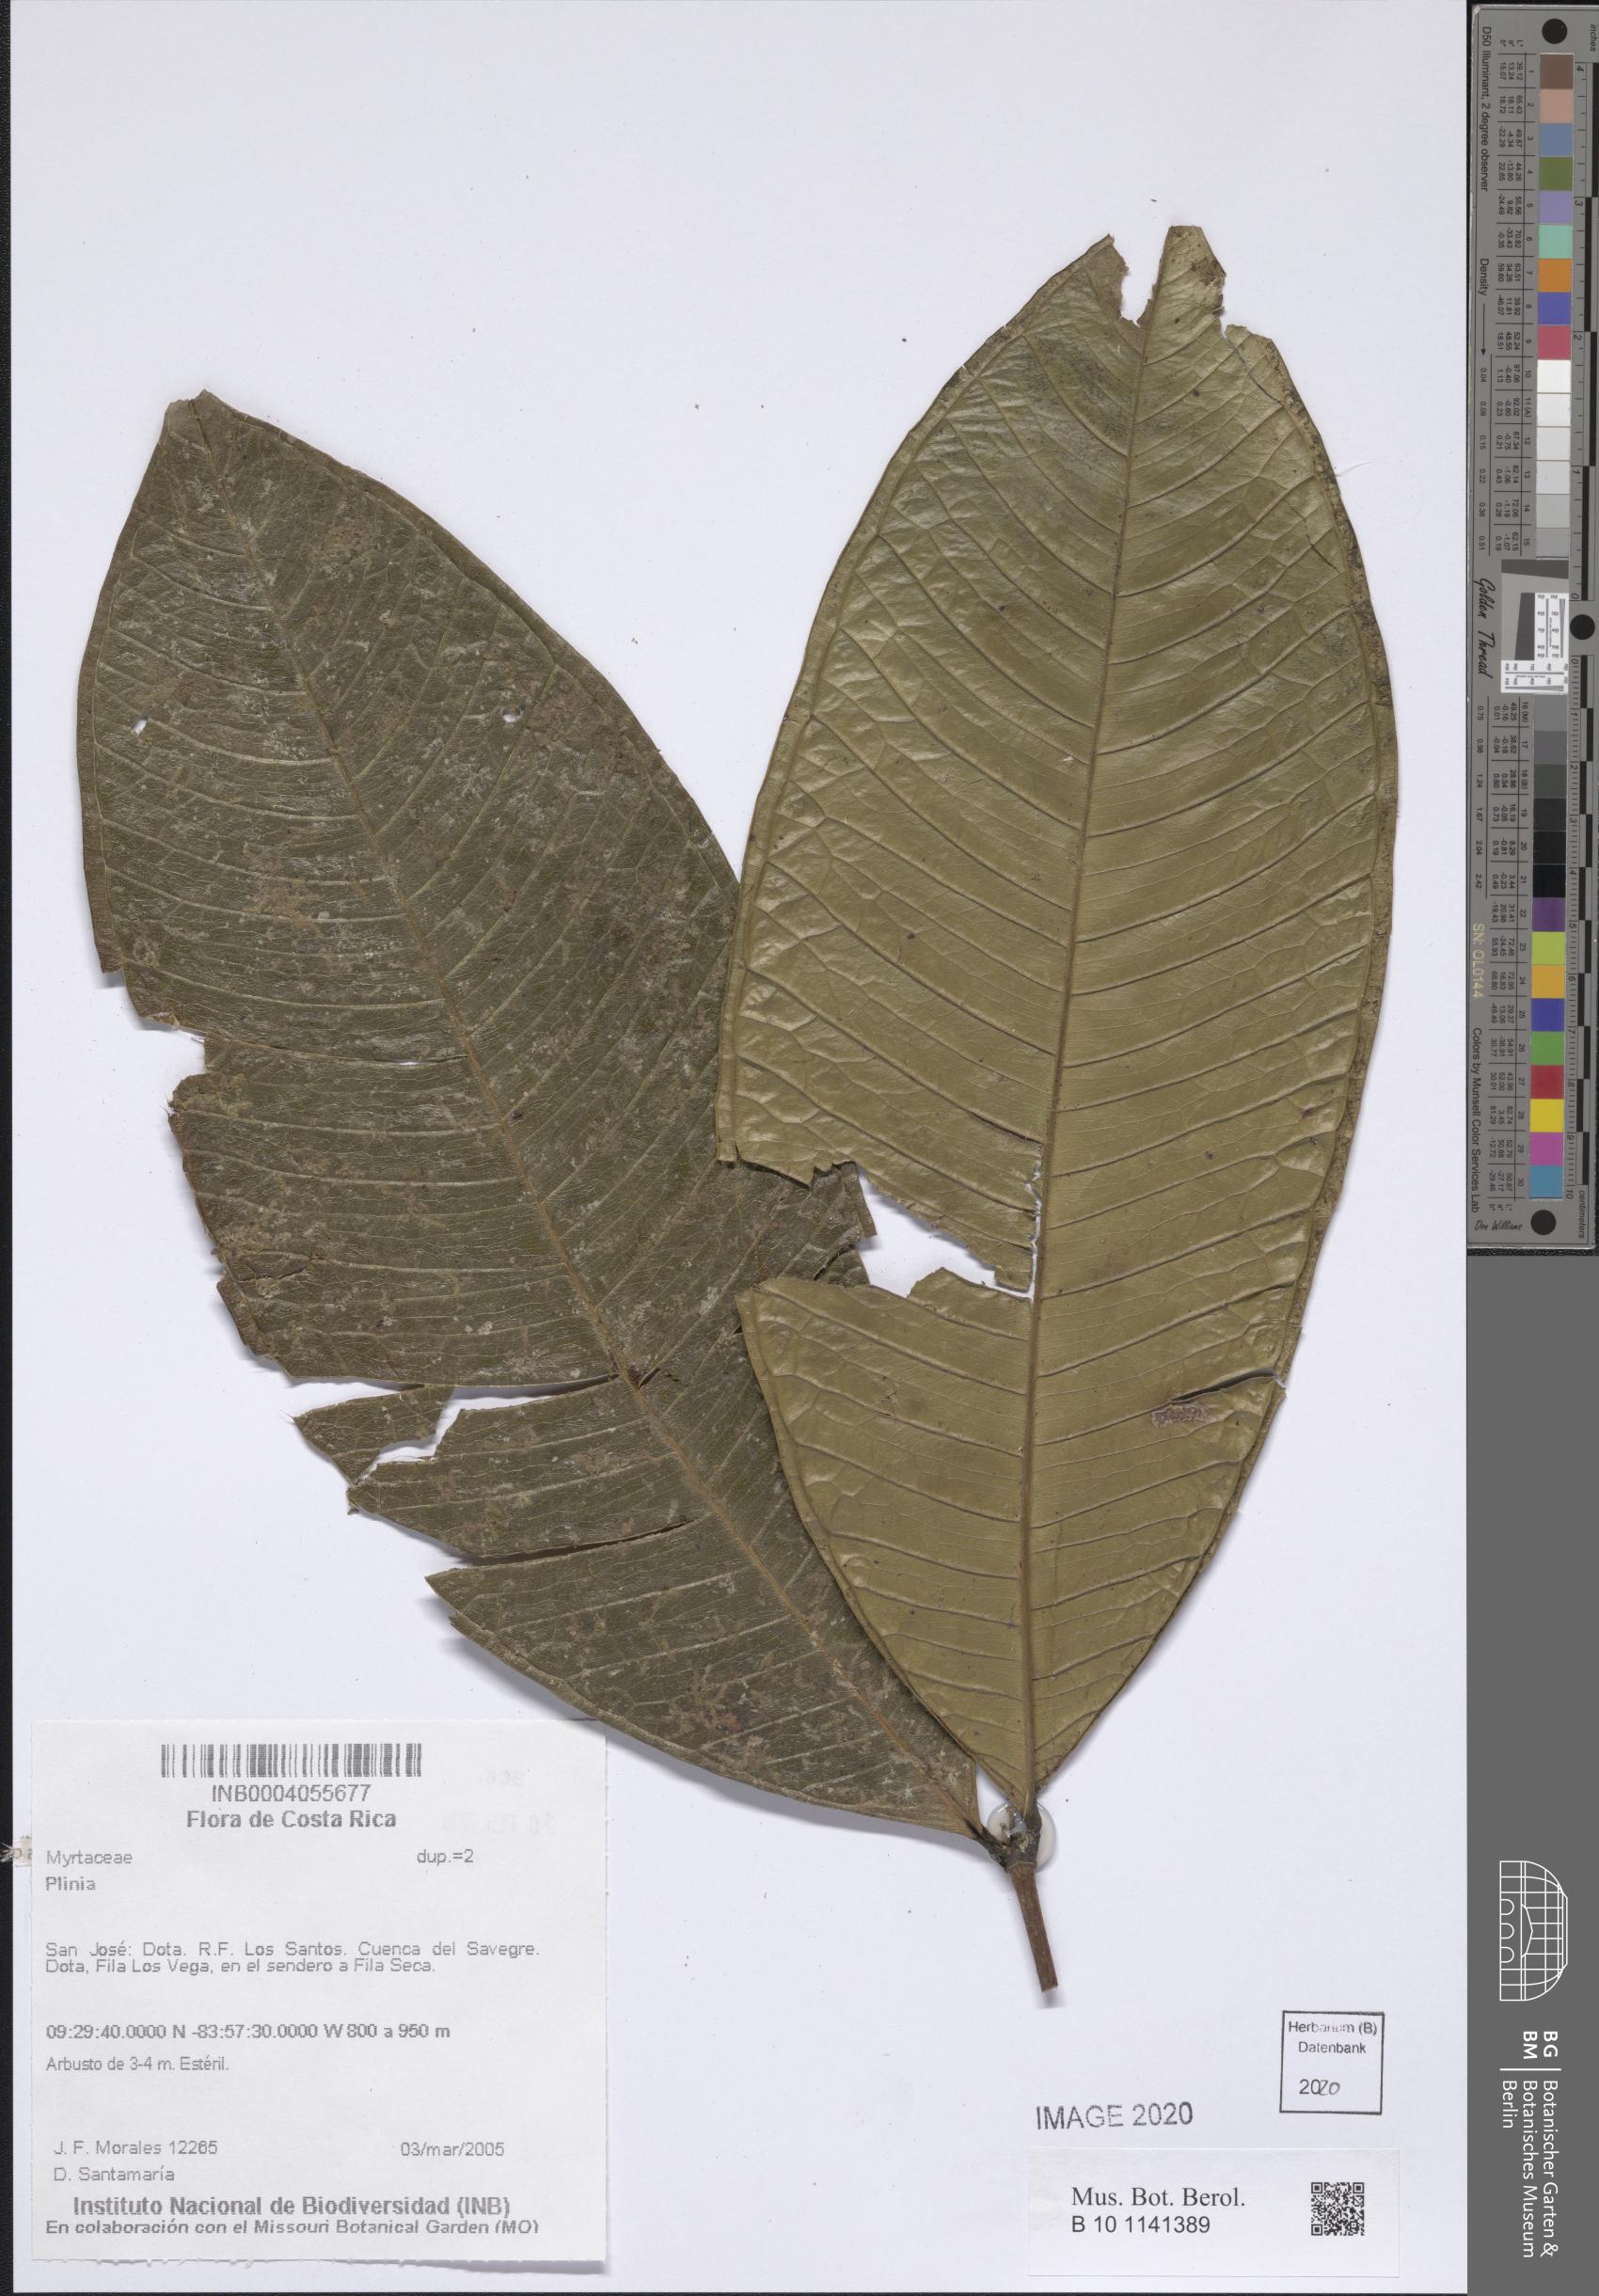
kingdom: Plantae
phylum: Tracheophyta
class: Magnoliopsida
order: Myrtales
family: Myrtaceae
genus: Plinia
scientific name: Plinia
